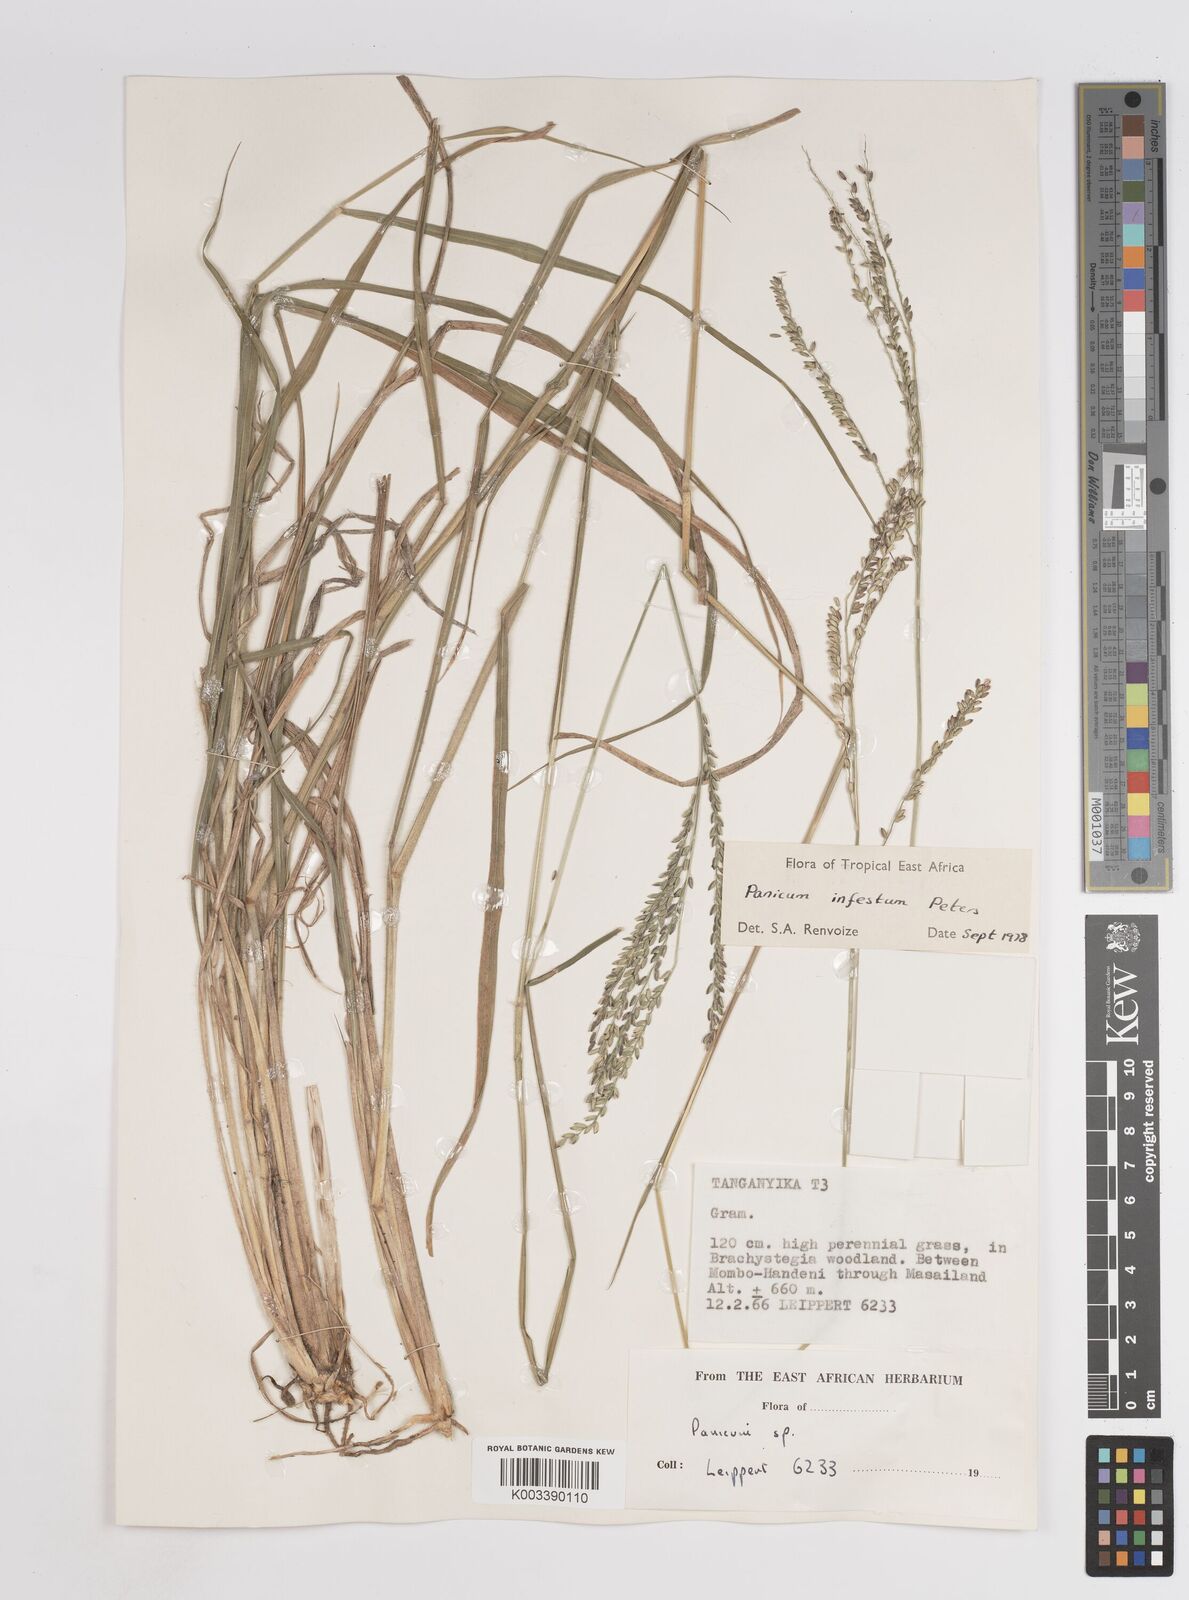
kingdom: Plantae
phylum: Tracheophyta
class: Liliopsida
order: Poales
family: Poaceae
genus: Megathyrsus
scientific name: Megathyrsus infestus
